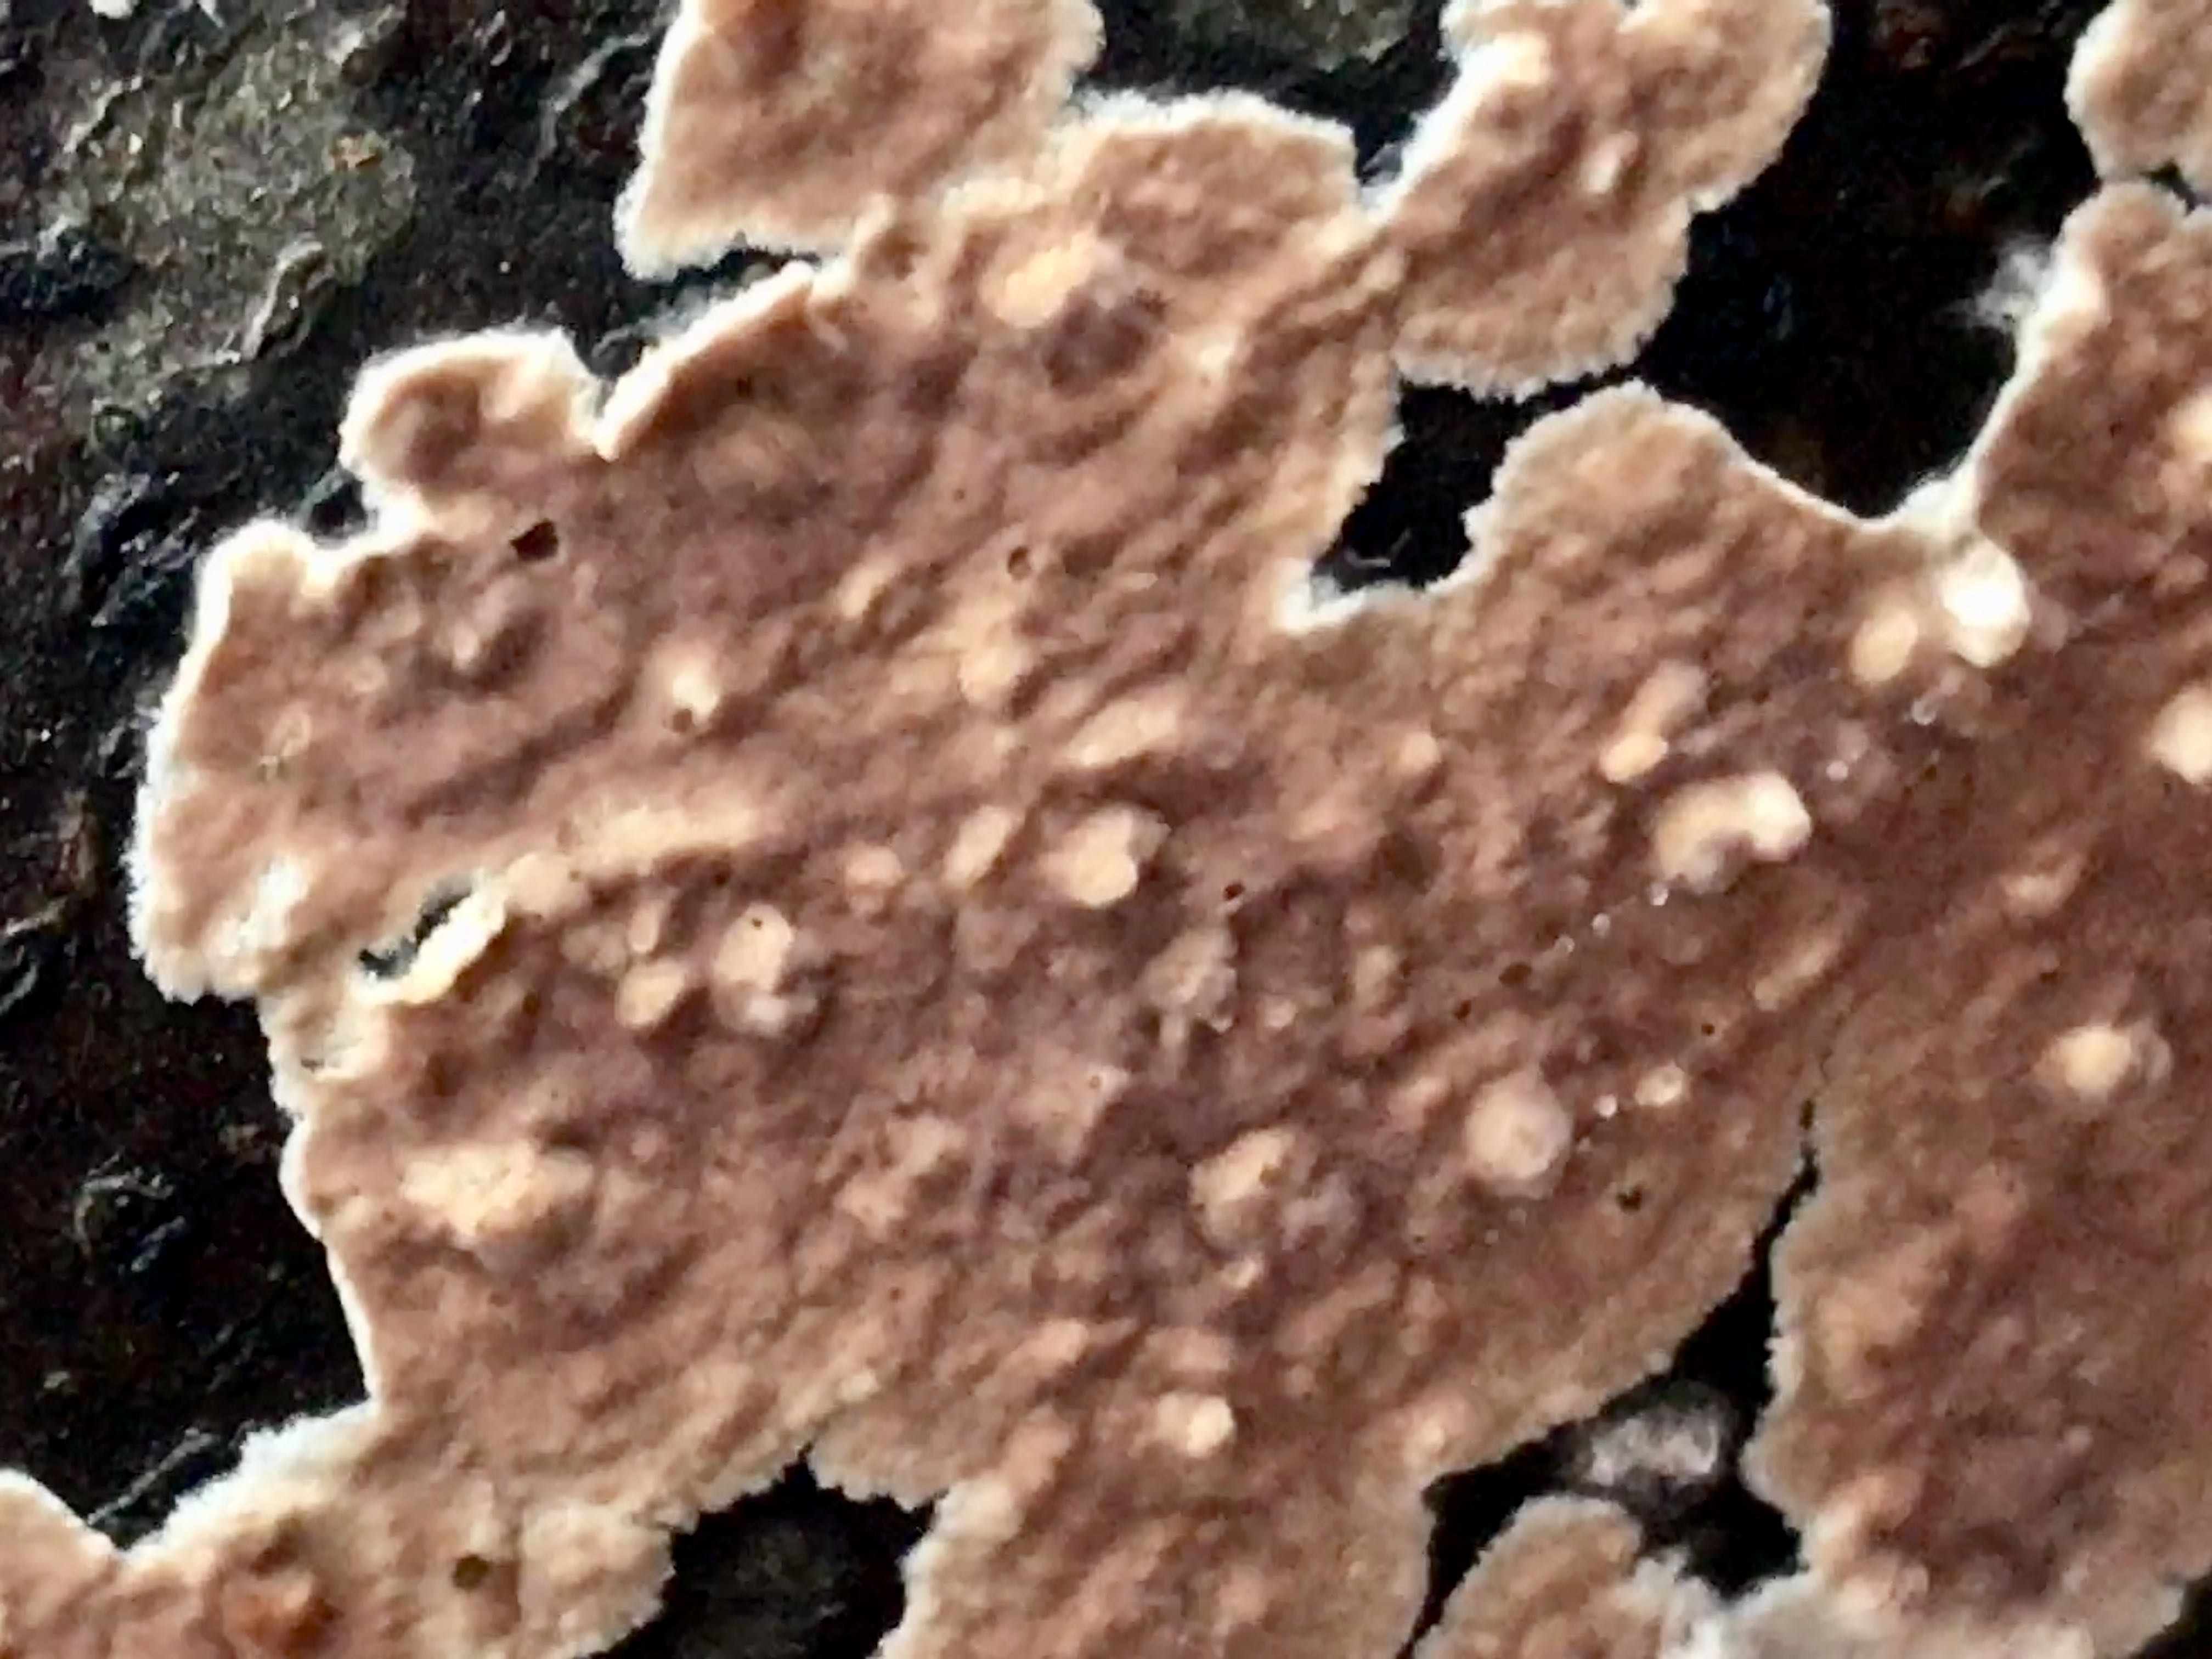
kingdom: Fungi
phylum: Basidiomycota
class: Agaricomycetes
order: Agaricales
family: Physalacriaceae
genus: Cylindrobasidium
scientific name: Cylindrobasidium evolvens
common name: sprækkehinde
